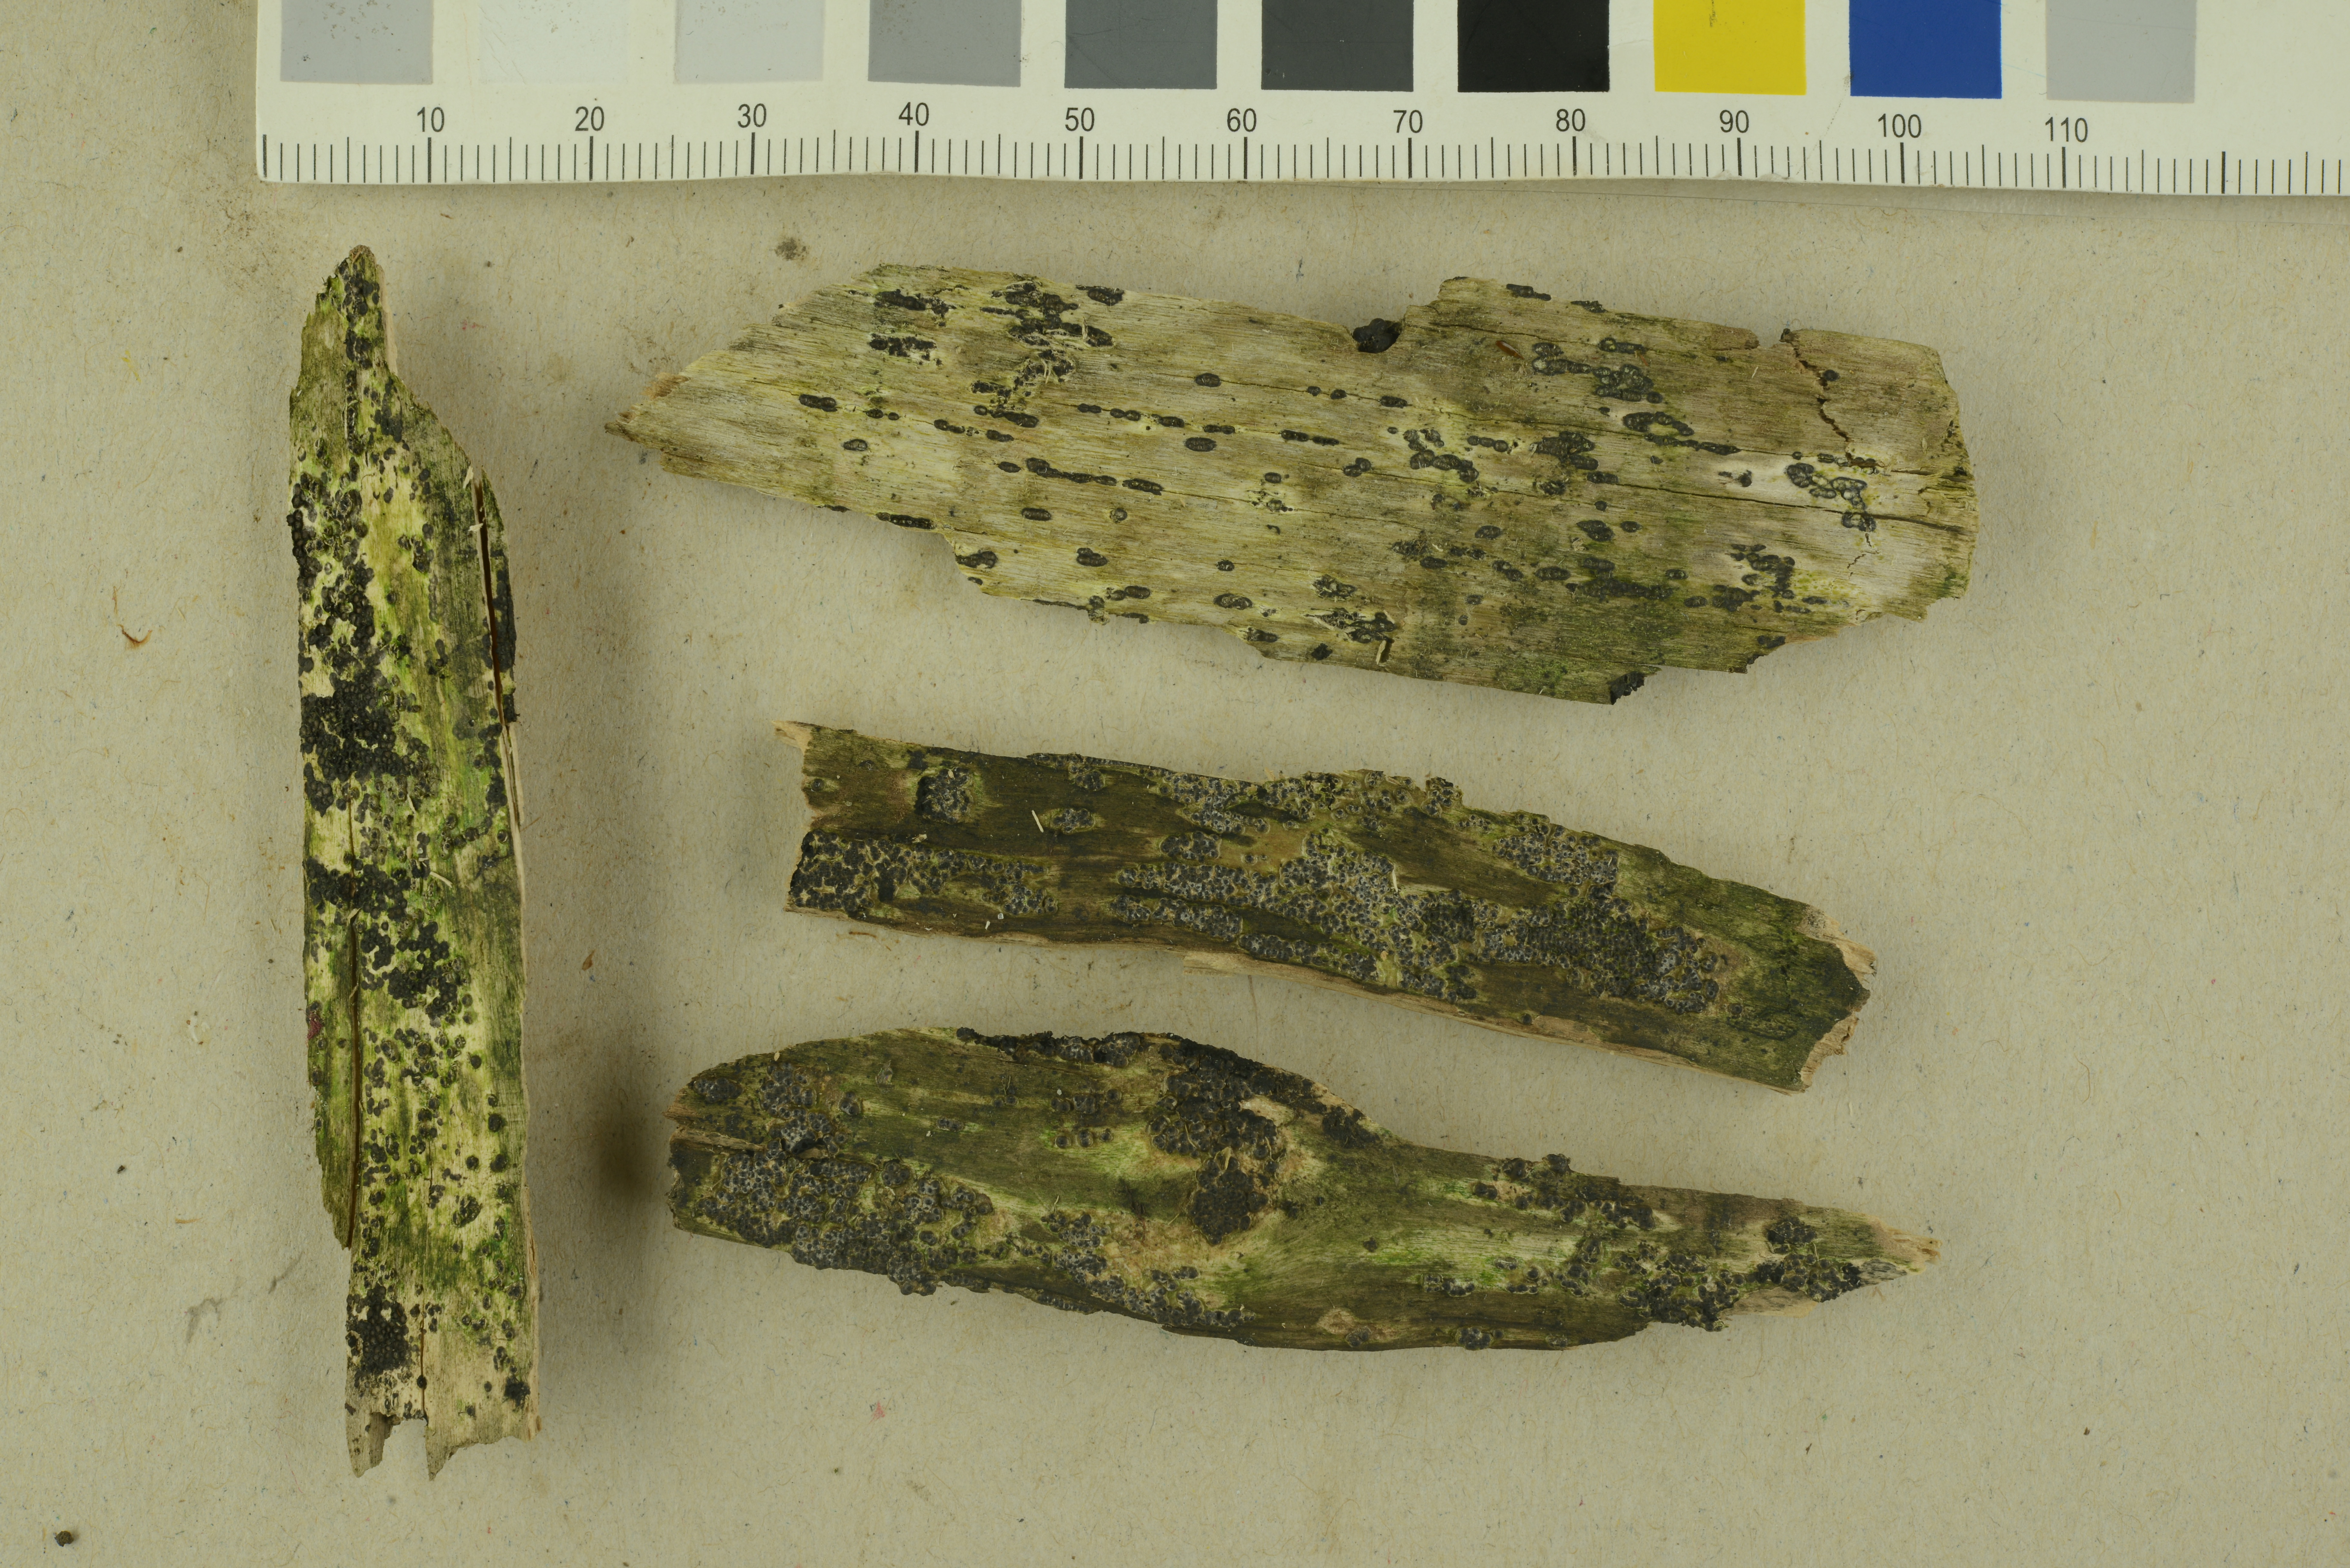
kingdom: Fungi
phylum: Ascomycota
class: Sordariomycetes
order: Xylariales
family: Xylariaceae
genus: Nemania
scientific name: Nemania maritima
